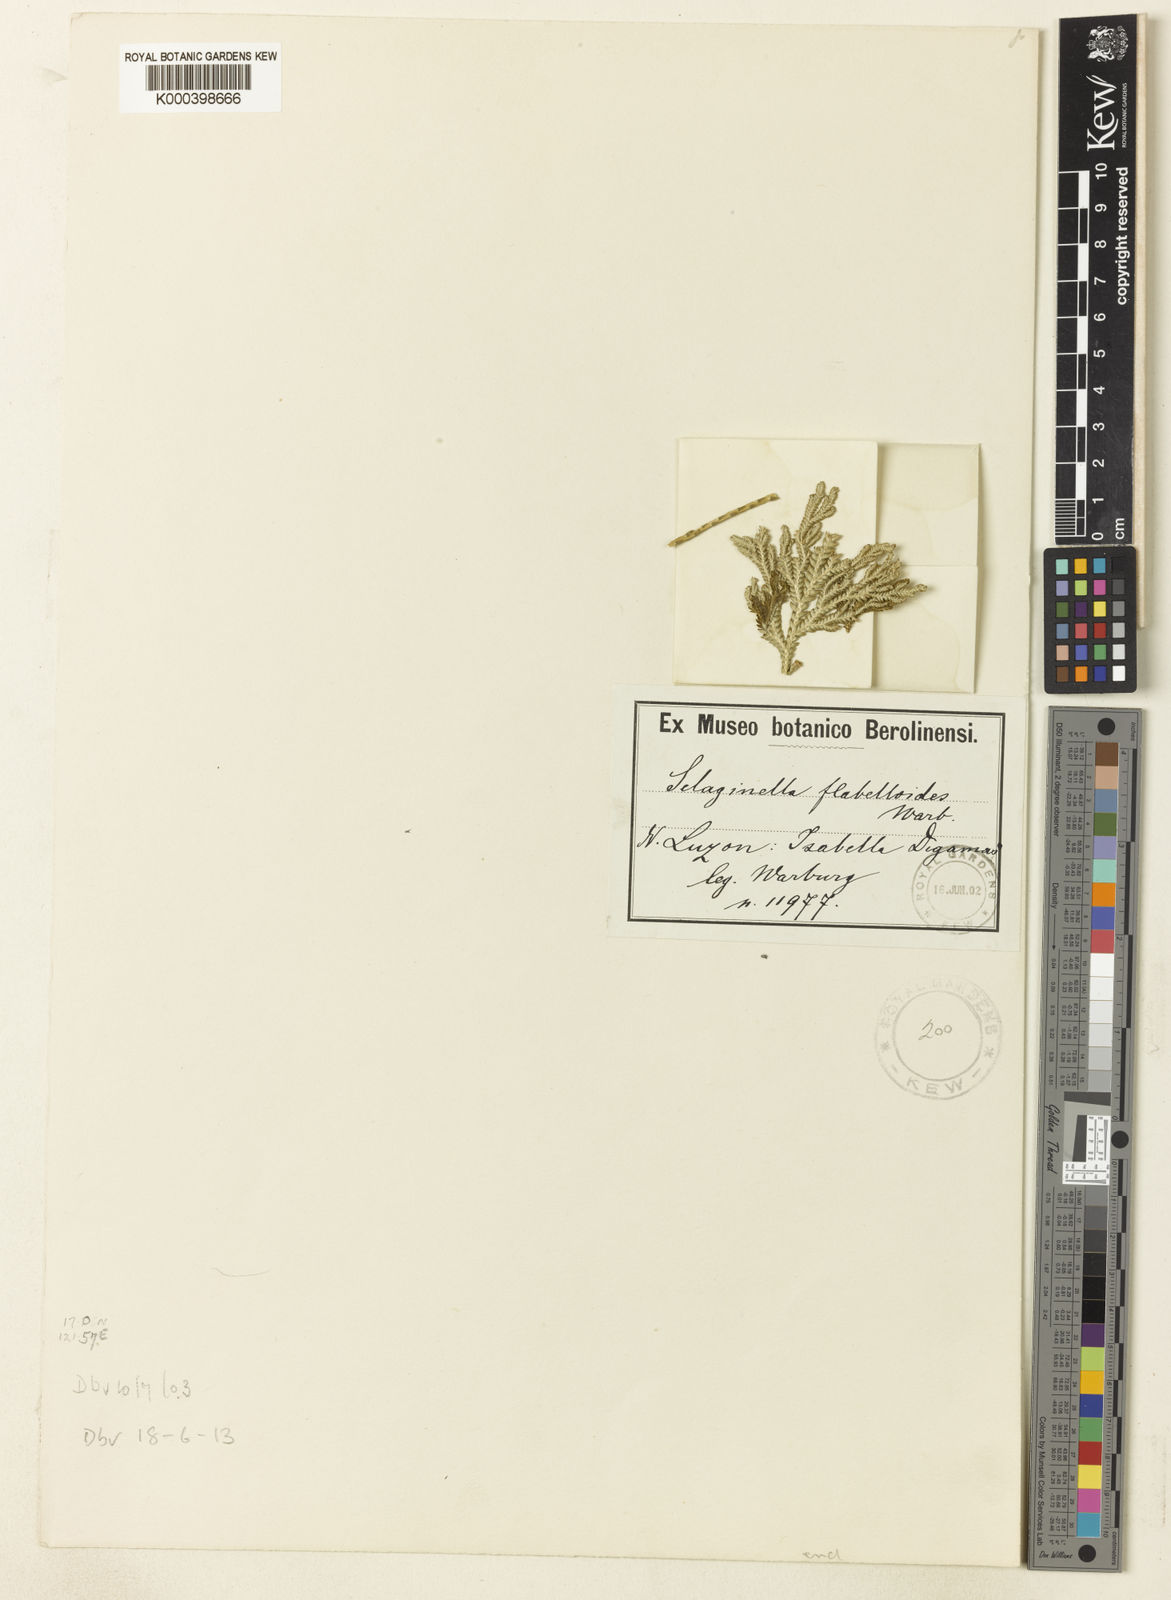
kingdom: Plantae
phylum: Tracheophyta
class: Lycopodiopsida
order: Selaginellales
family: Selaginellaceae
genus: Selaginella
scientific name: Selaginella
